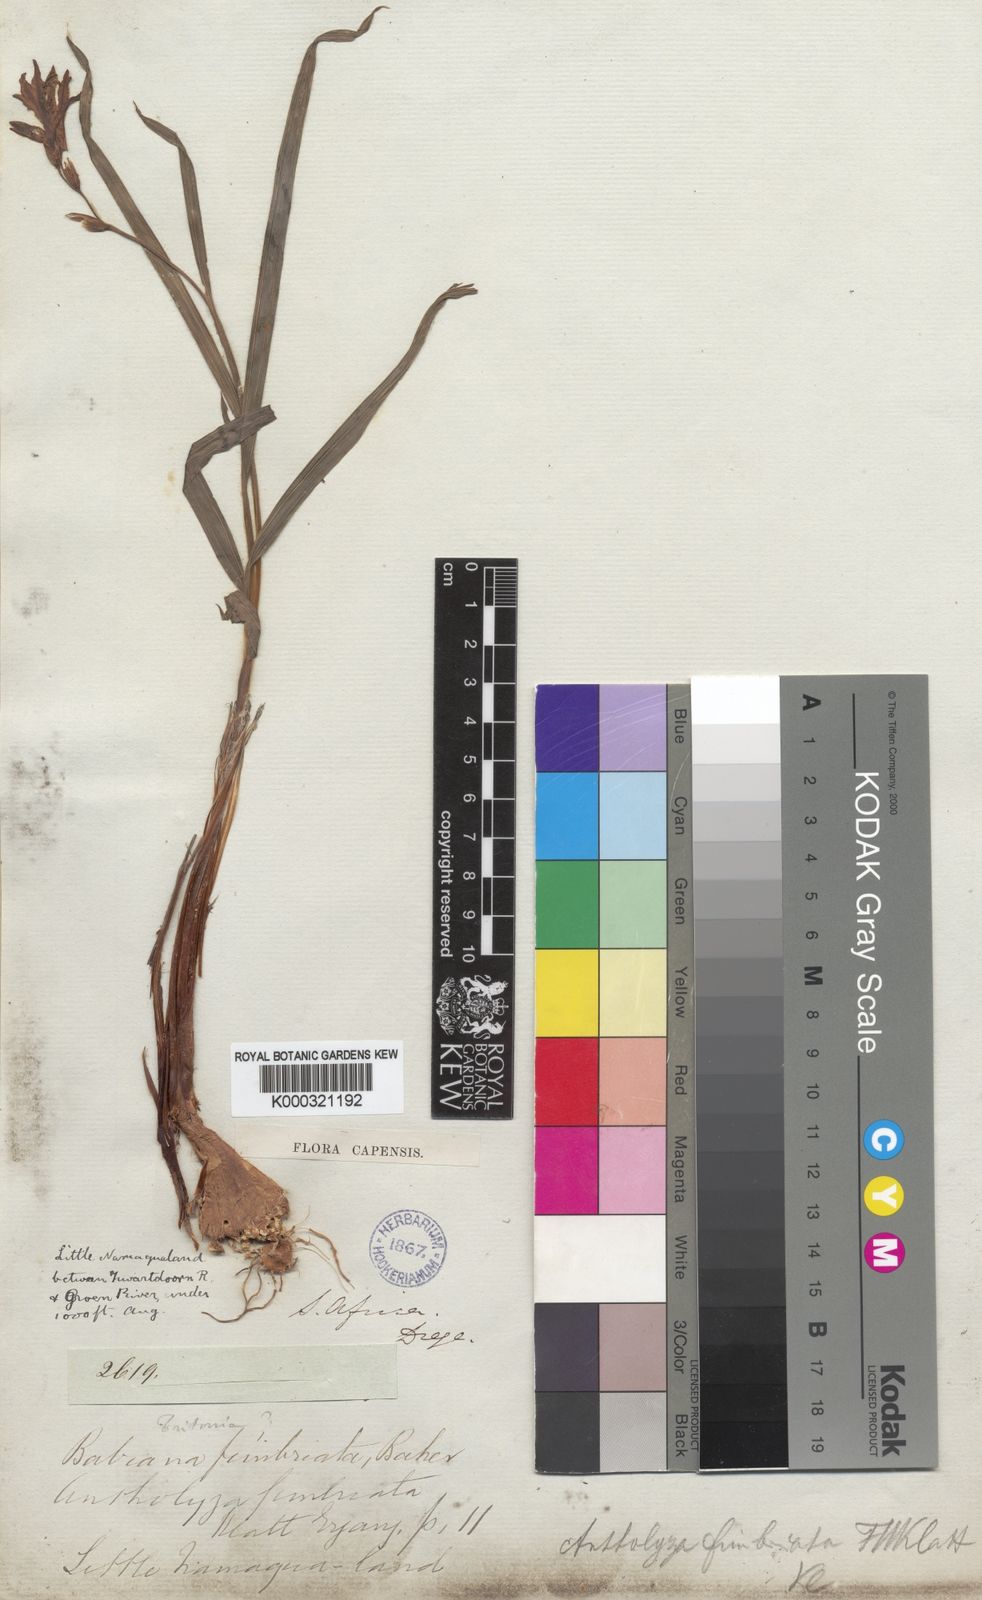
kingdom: Plantae
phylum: Tracheophyta
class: Liliopsida
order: Asparagales
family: Iridaceae
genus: Babiana
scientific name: Babiana fimbriata
